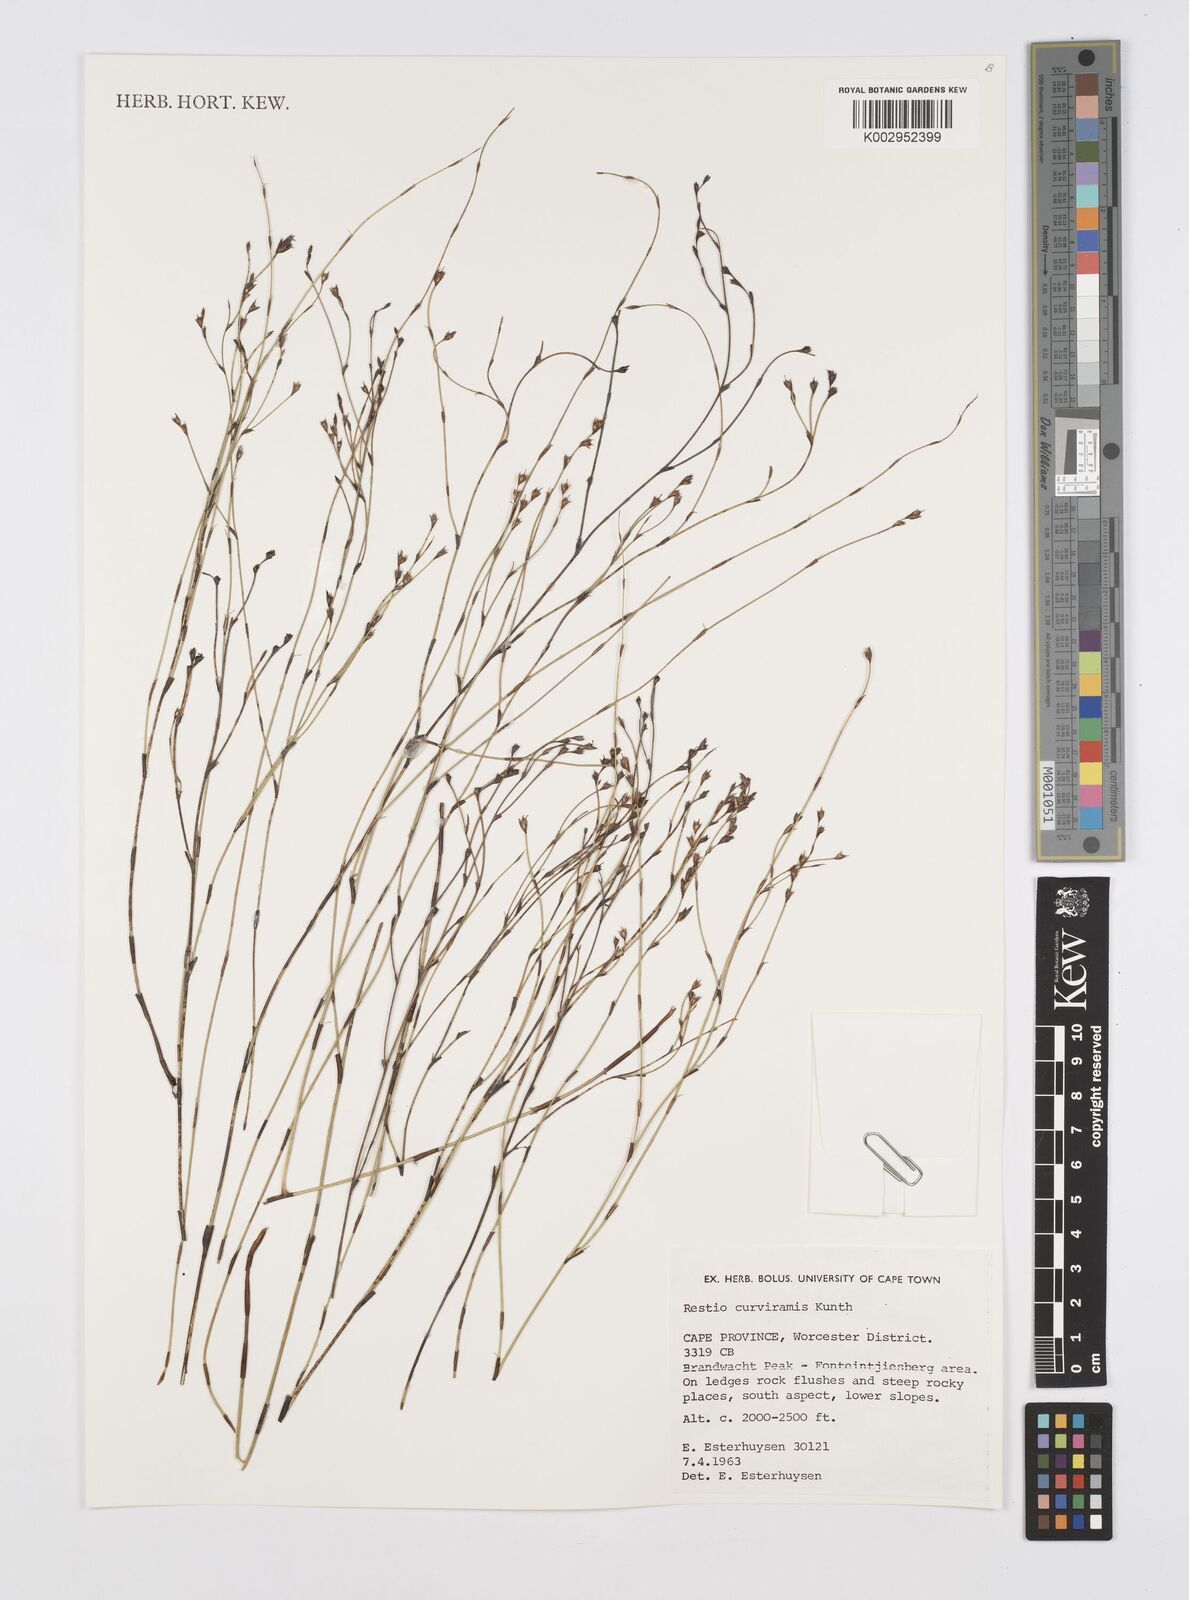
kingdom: Plantae
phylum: Tracheophyta
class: Liliopsida
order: Poales
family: Restionaceae
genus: Restio
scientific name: Restio curviramis
